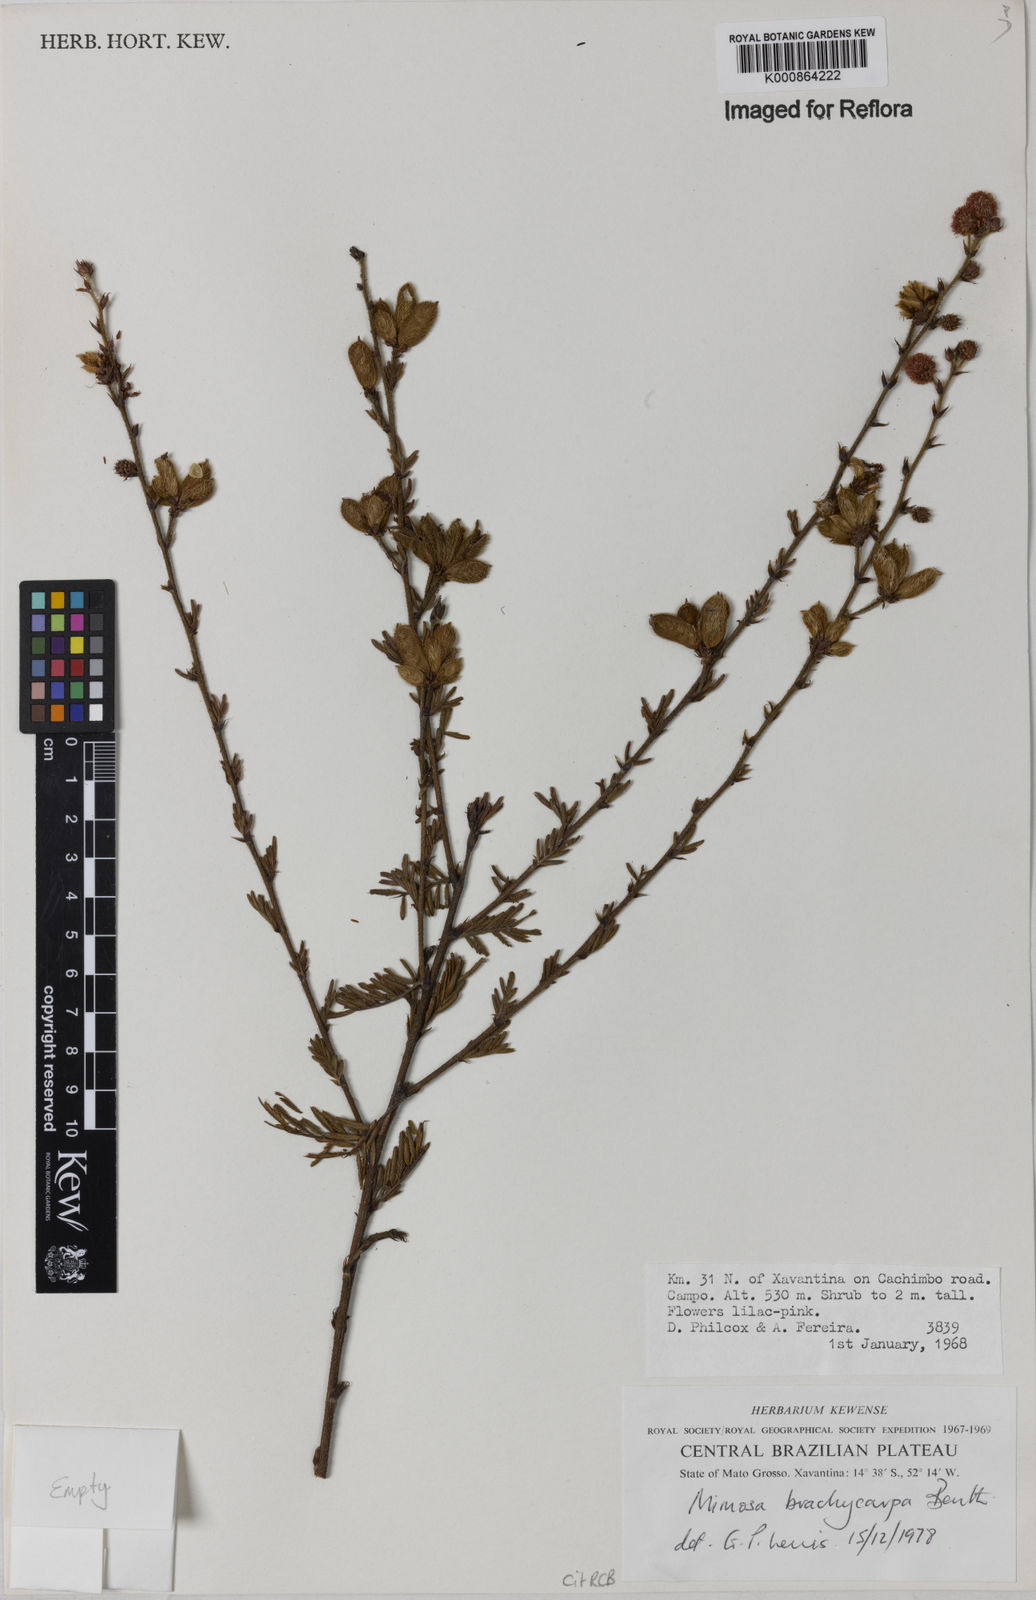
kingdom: Plantae
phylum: Tracheophyta
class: Magnoliopsida
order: Fabales
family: Fabaceae
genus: Mimosa
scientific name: Mimosa brachycarpa
